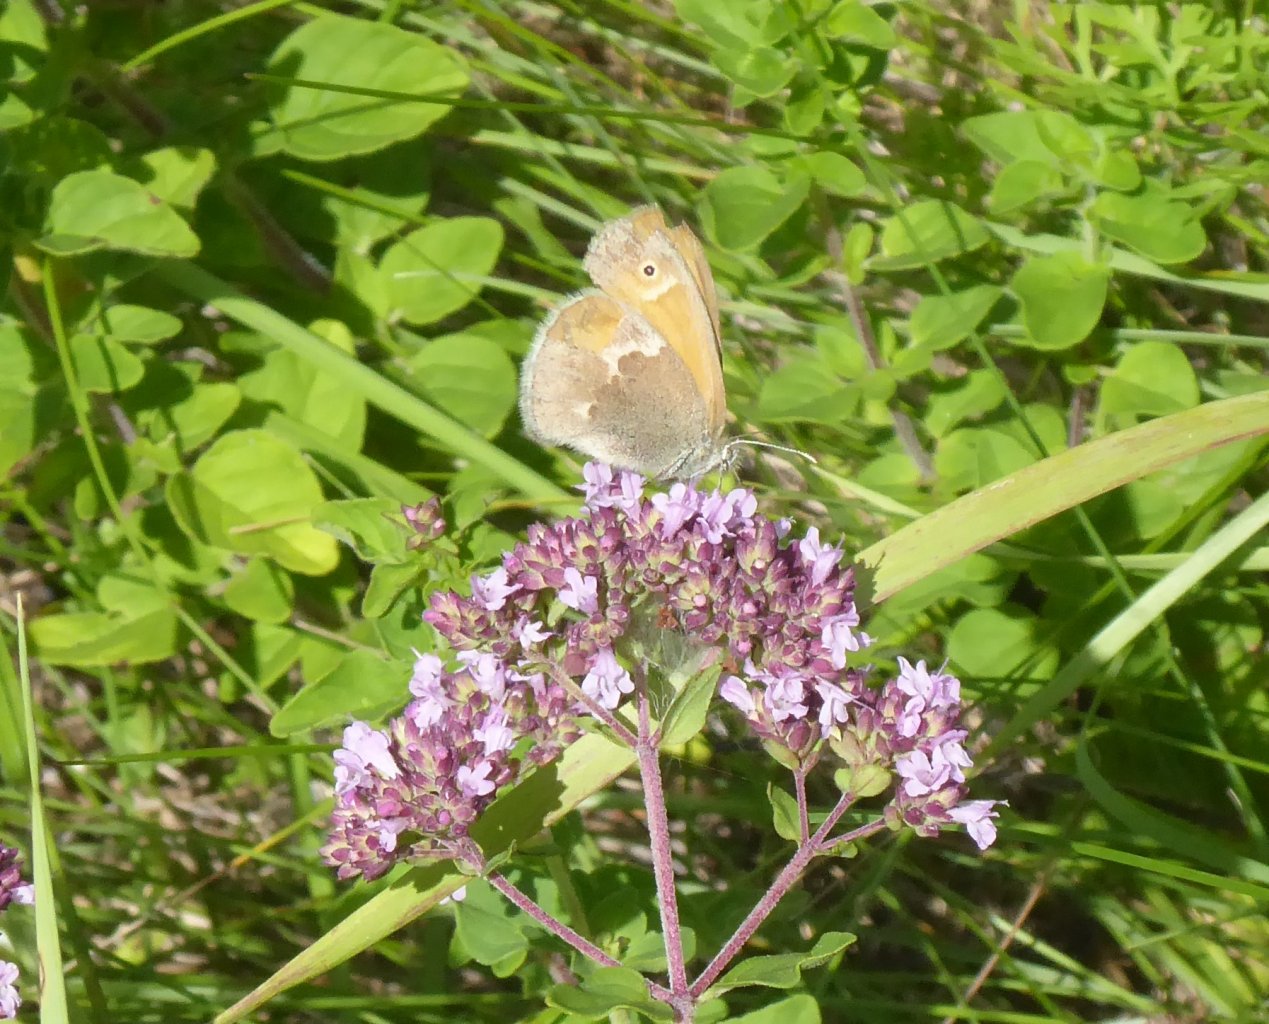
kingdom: Animalia
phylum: Arthropoda
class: Insecta
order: Lepidoptera
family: Nymphalidae
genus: Coenonympha
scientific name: Coenonympha tullia
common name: Large Heath
